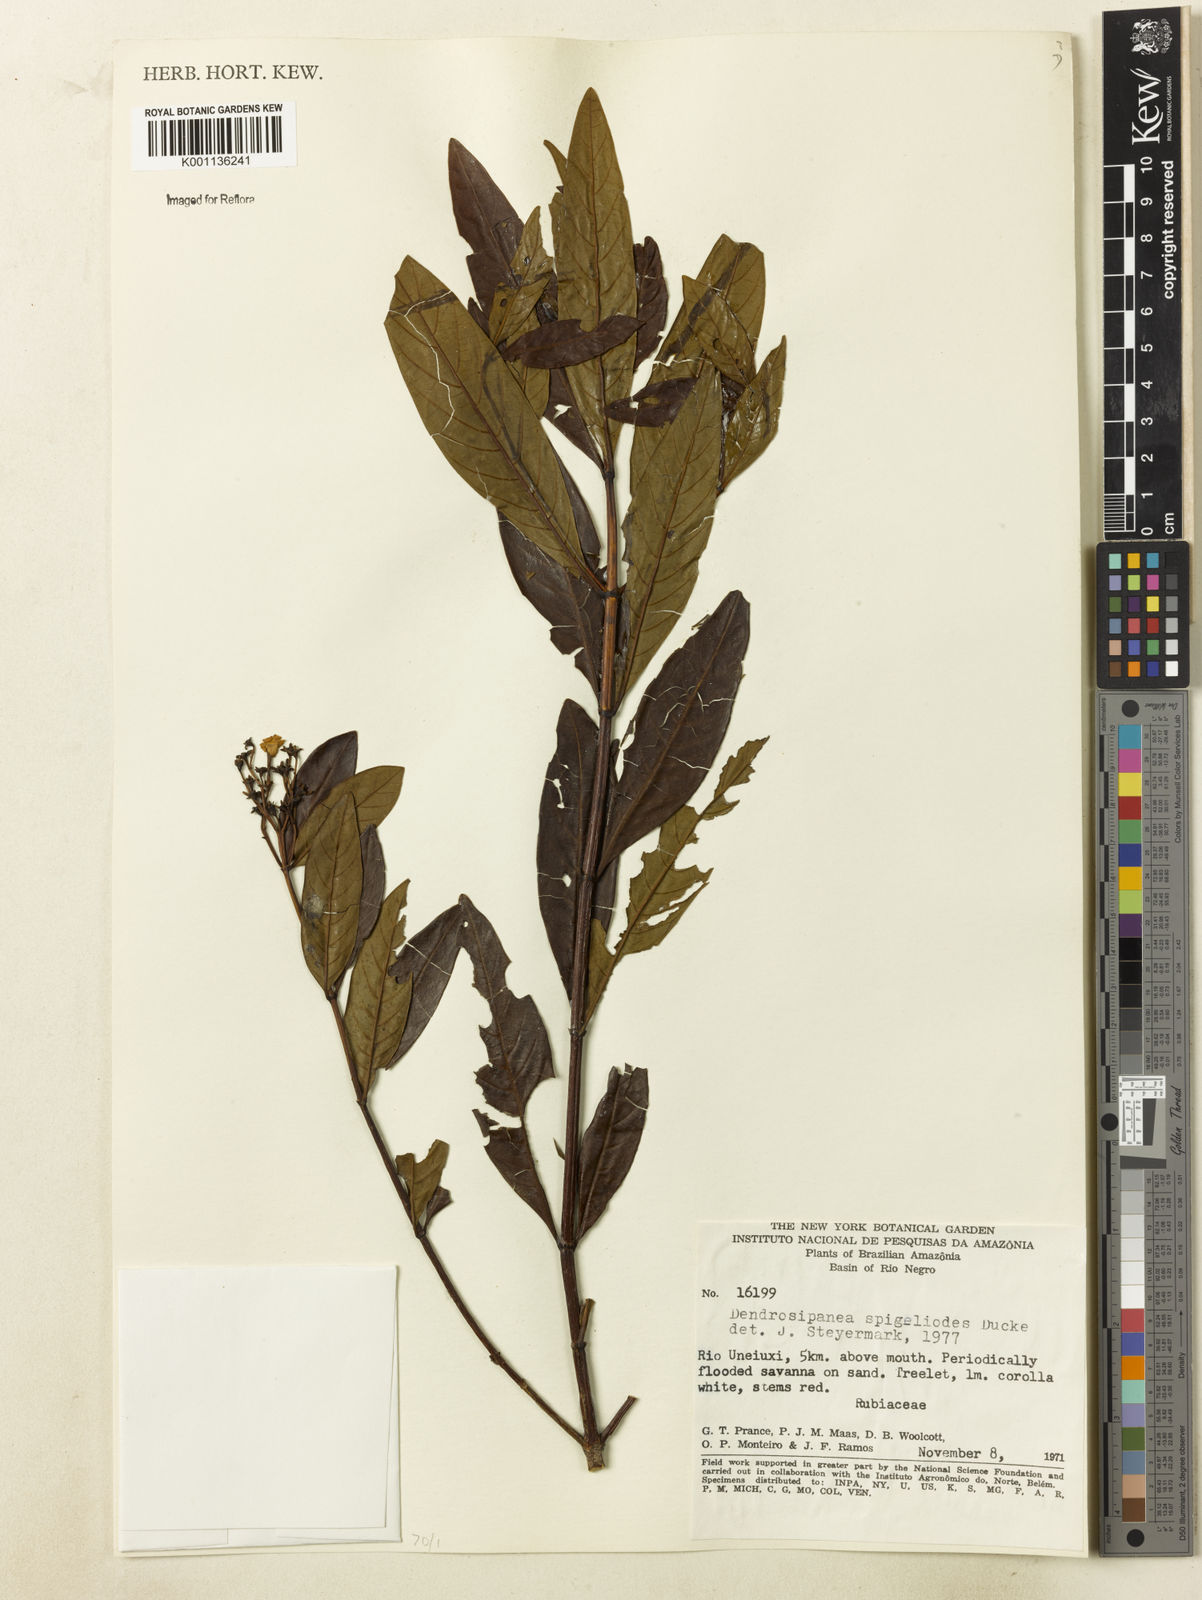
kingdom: Plantae
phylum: Tracheophyta
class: Magnoliopsida
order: Gentianales
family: Rubiaceae
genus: Dendrosipanea
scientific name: Dendrosipanea spigelioides
